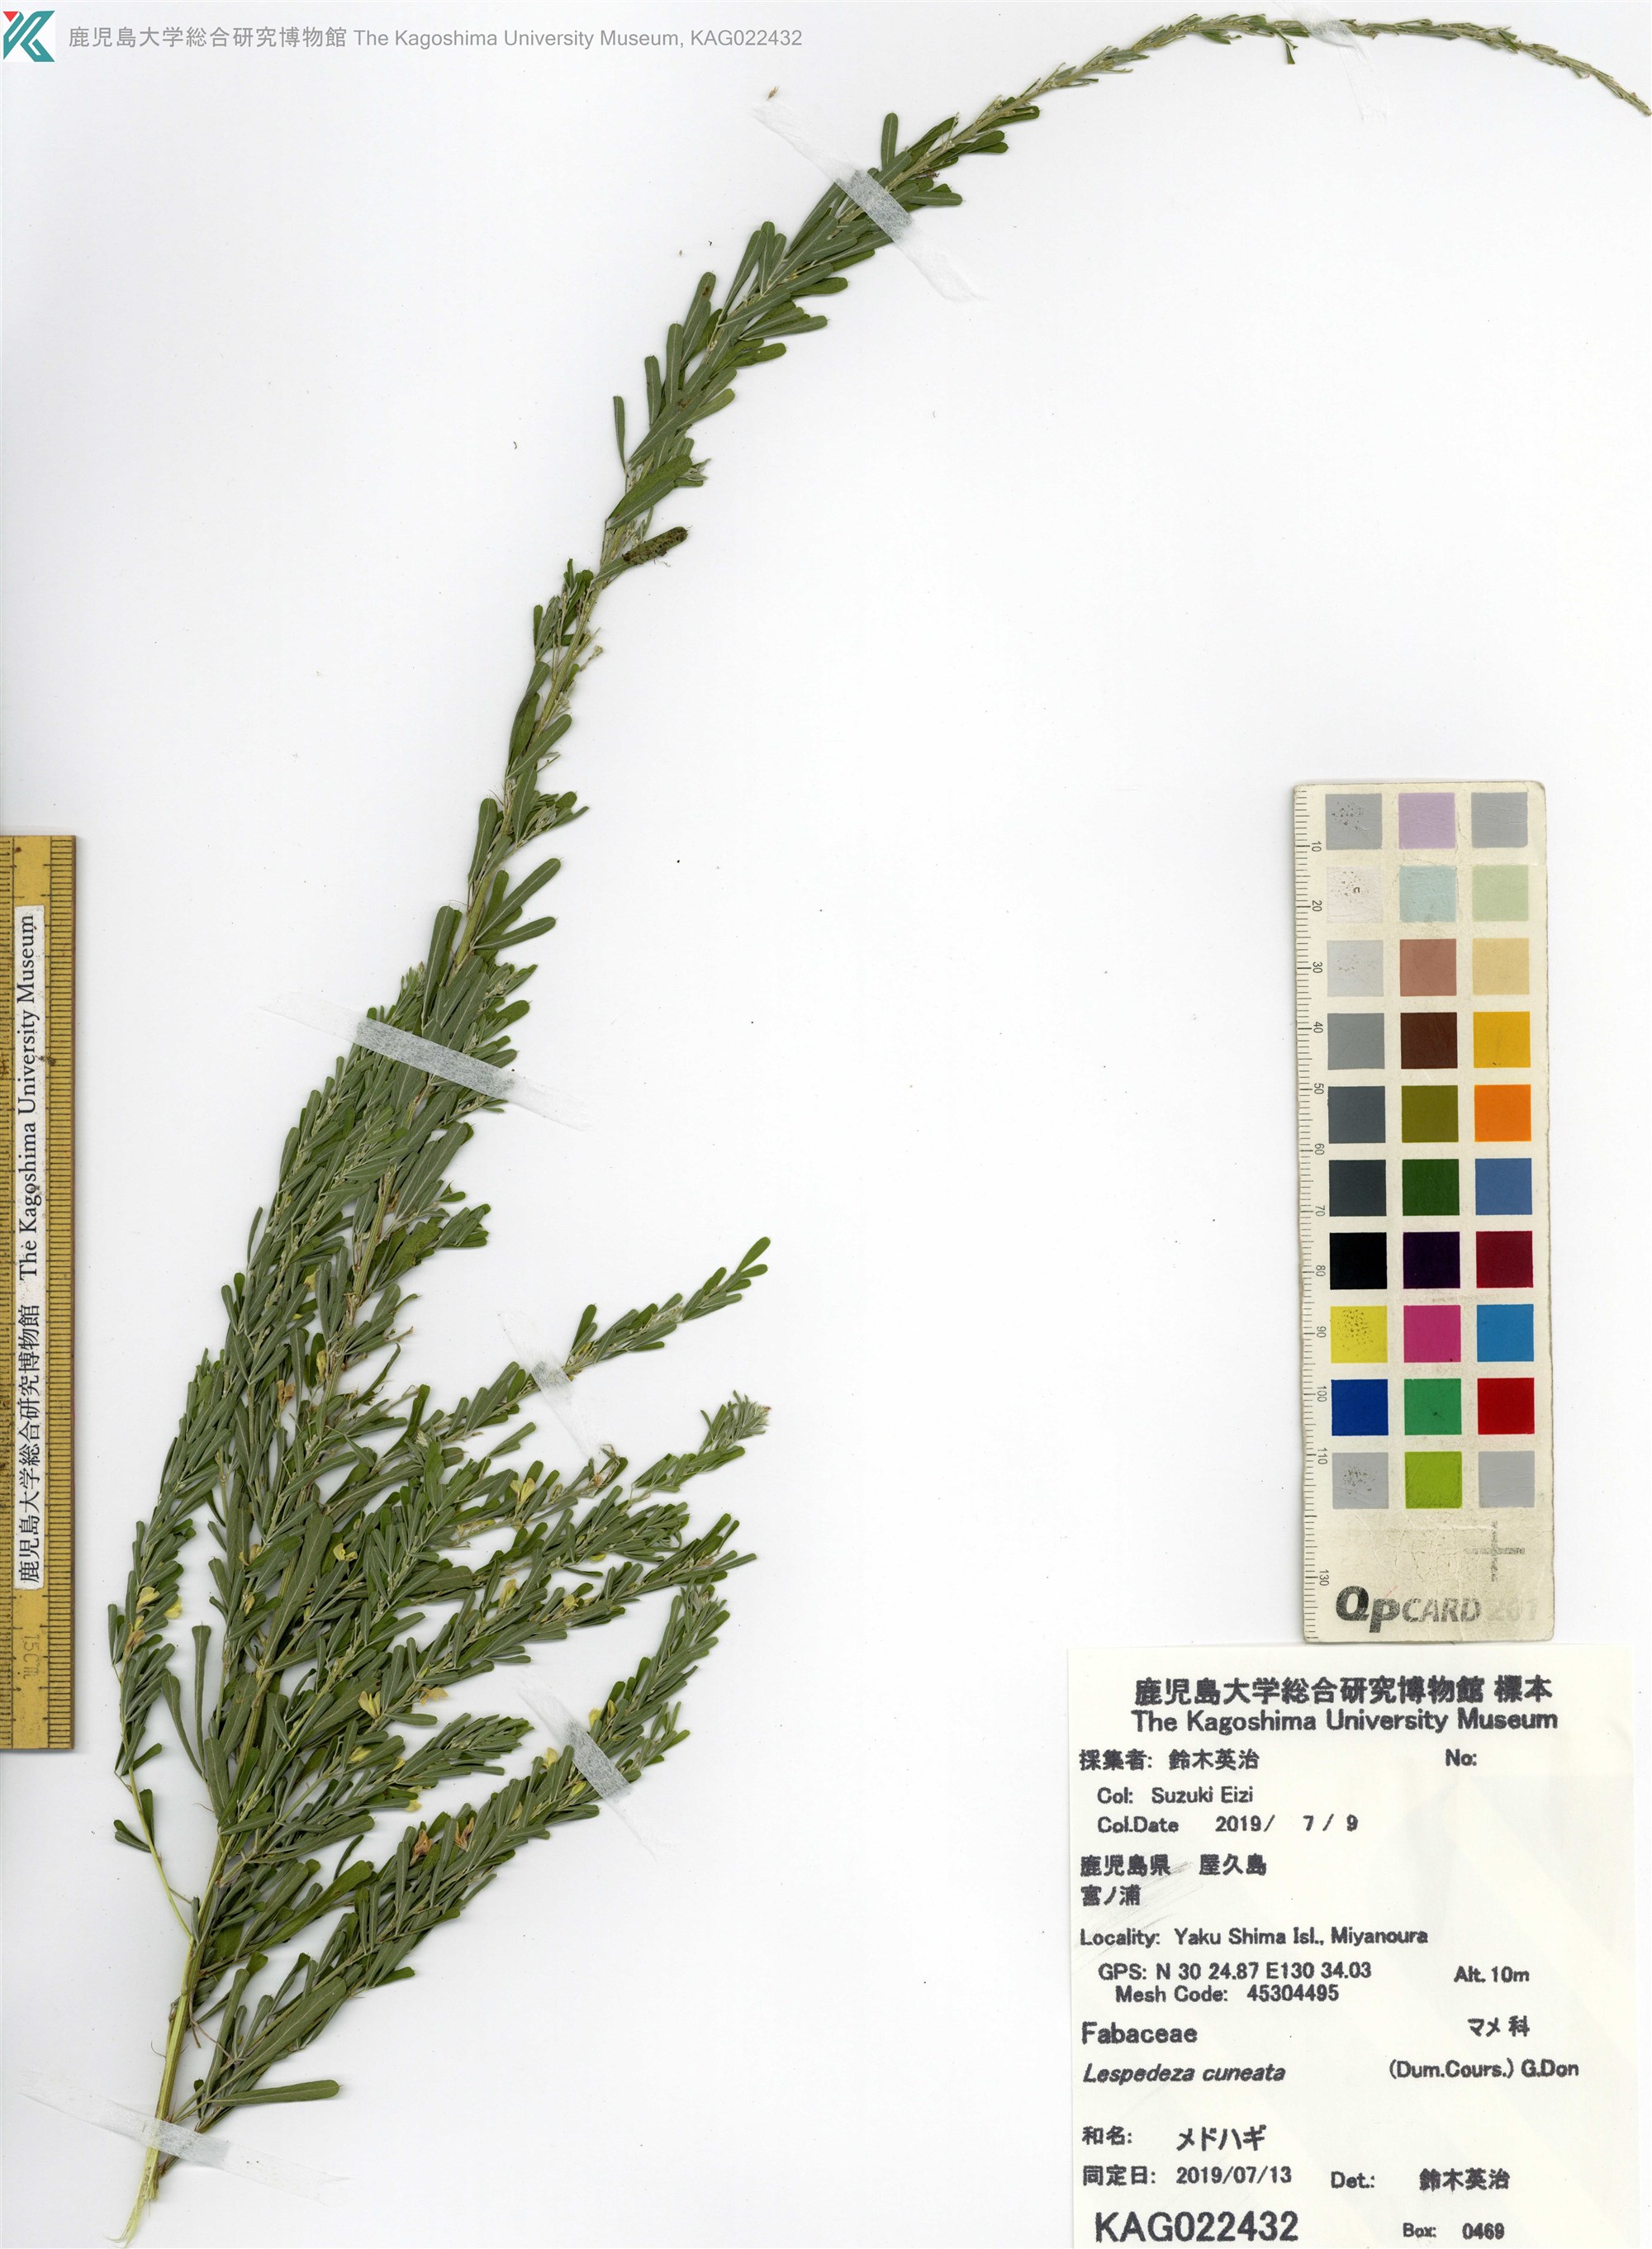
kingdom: Plantae
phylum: Tracheophyta
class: Magnoliopsida
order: Fabales
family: Fabaceae
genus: Lespedeza
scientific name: Lespedeza cuneata
